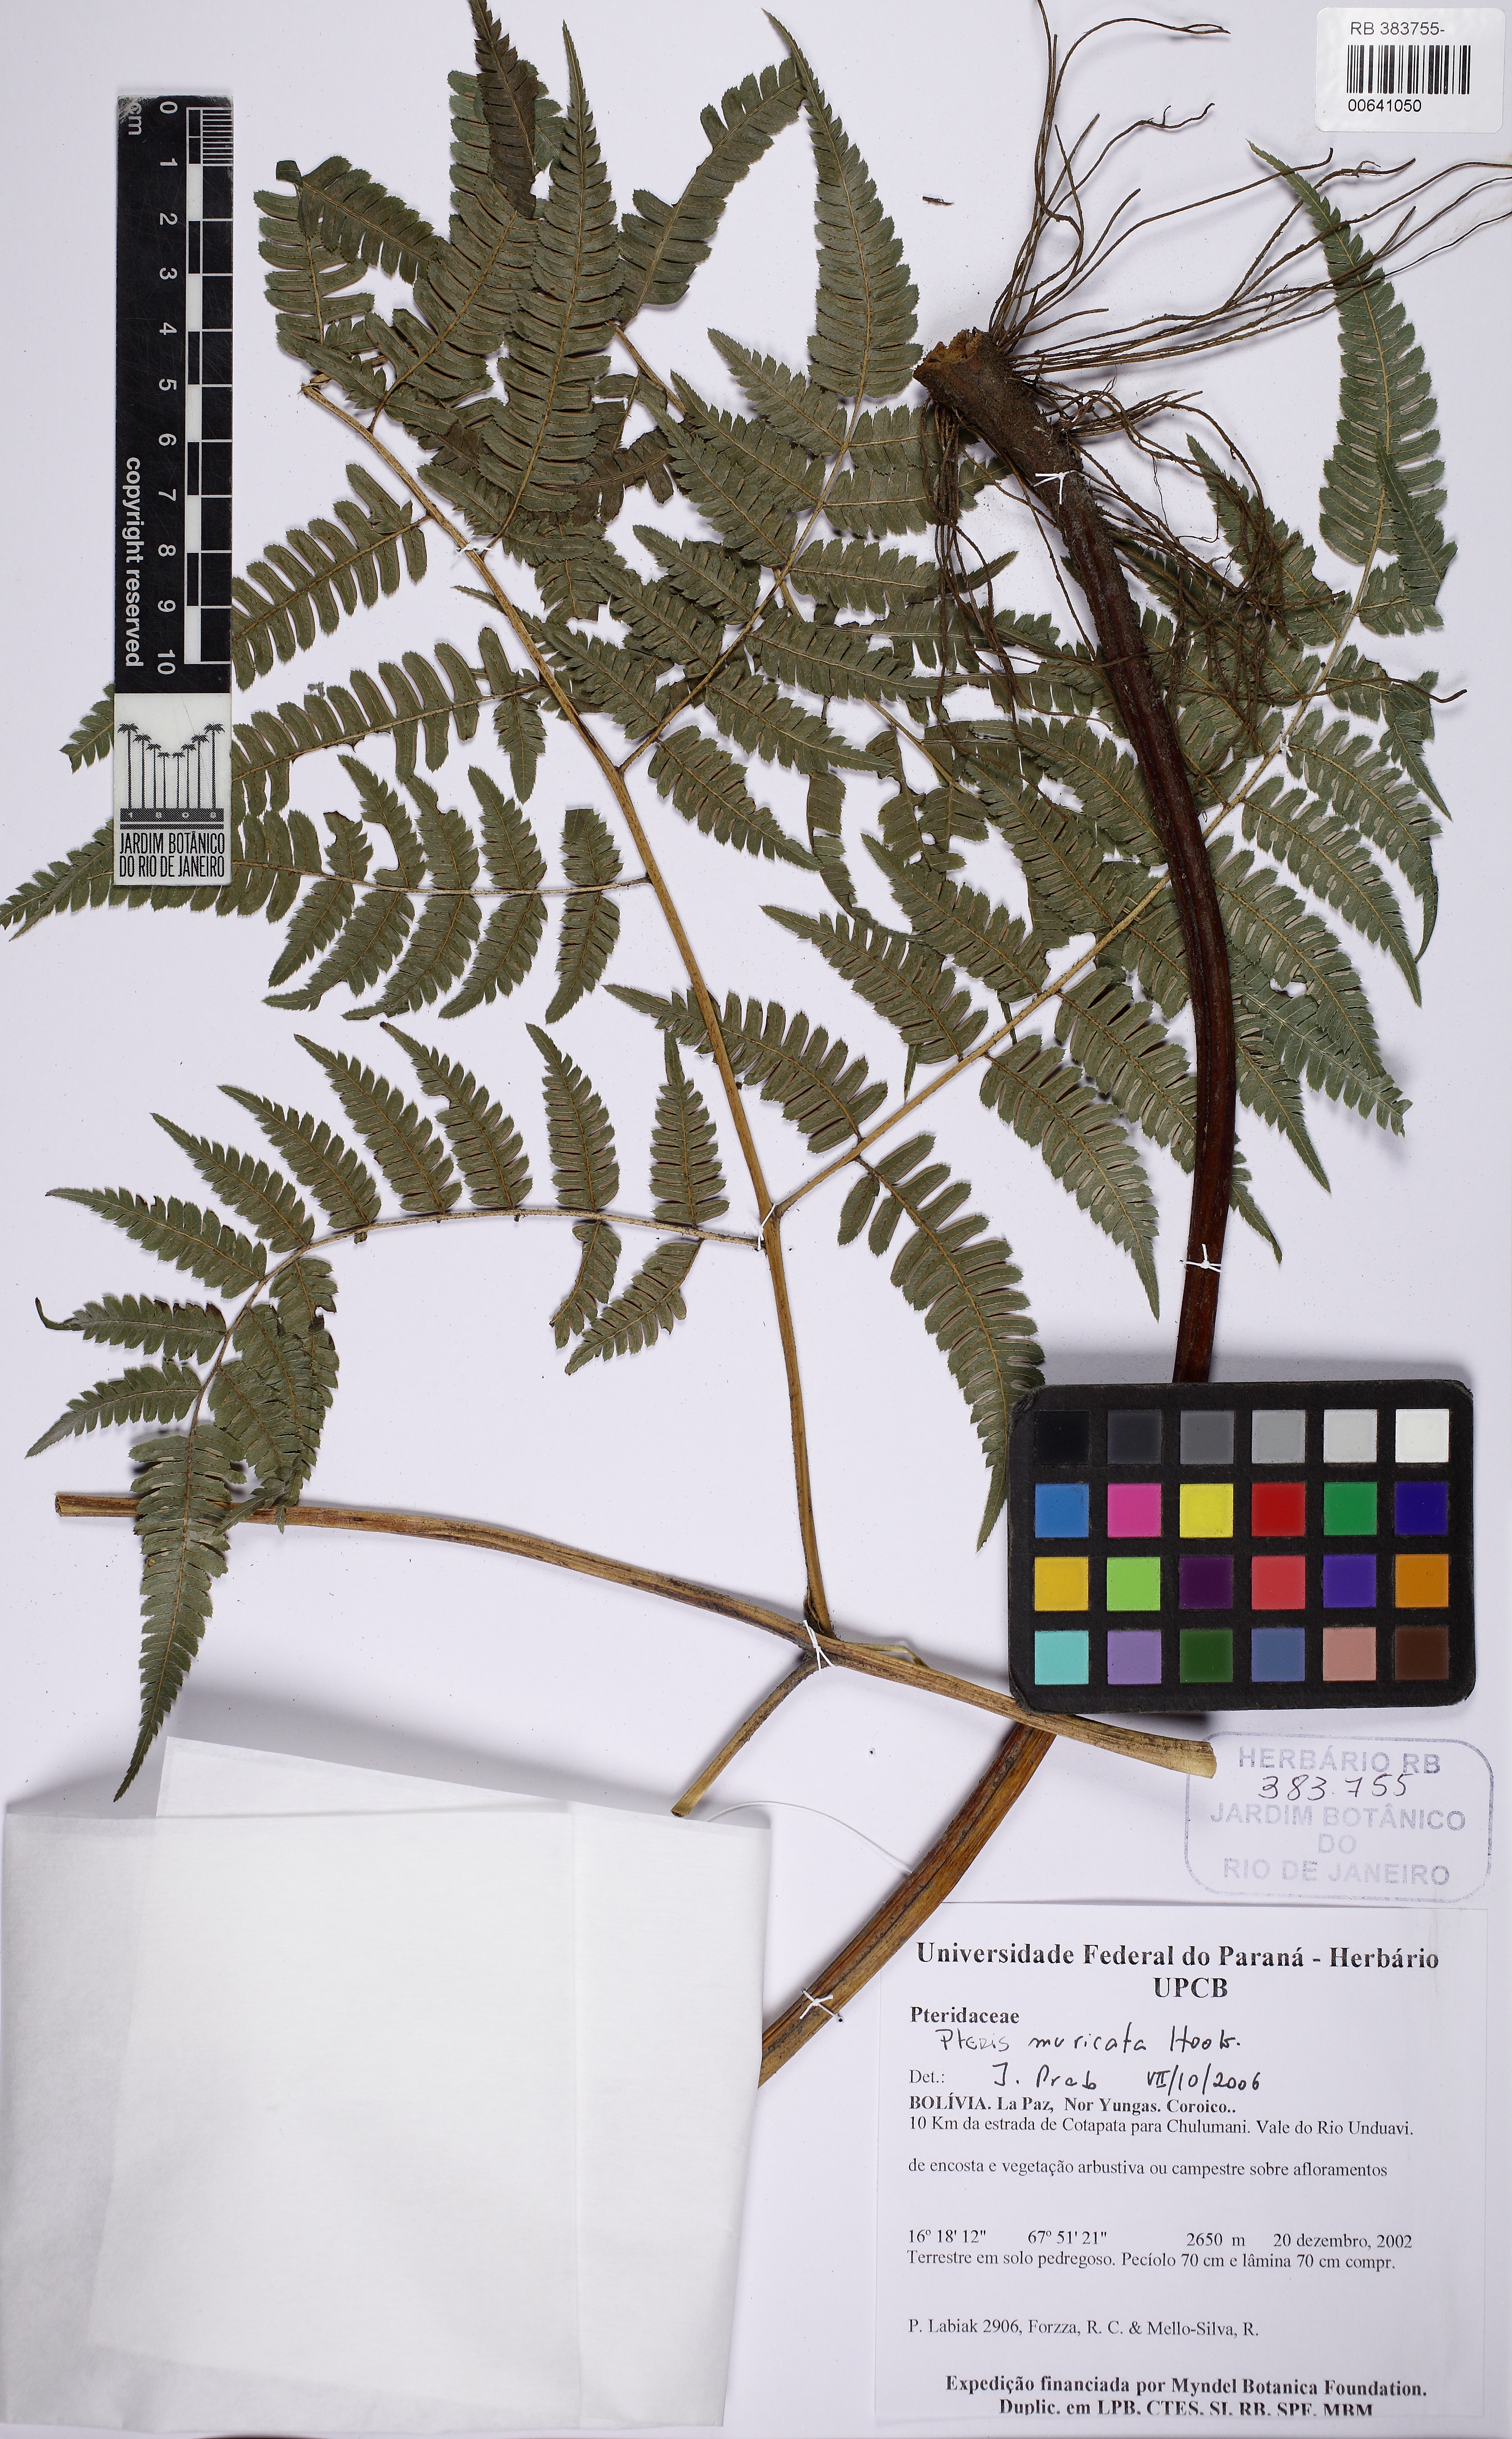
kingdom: Plantae
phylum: Tracheophyta
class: Polypodiopsida
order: Polypodiales
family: Pteridaceae
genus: Pteris
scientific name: Pteris muricata
